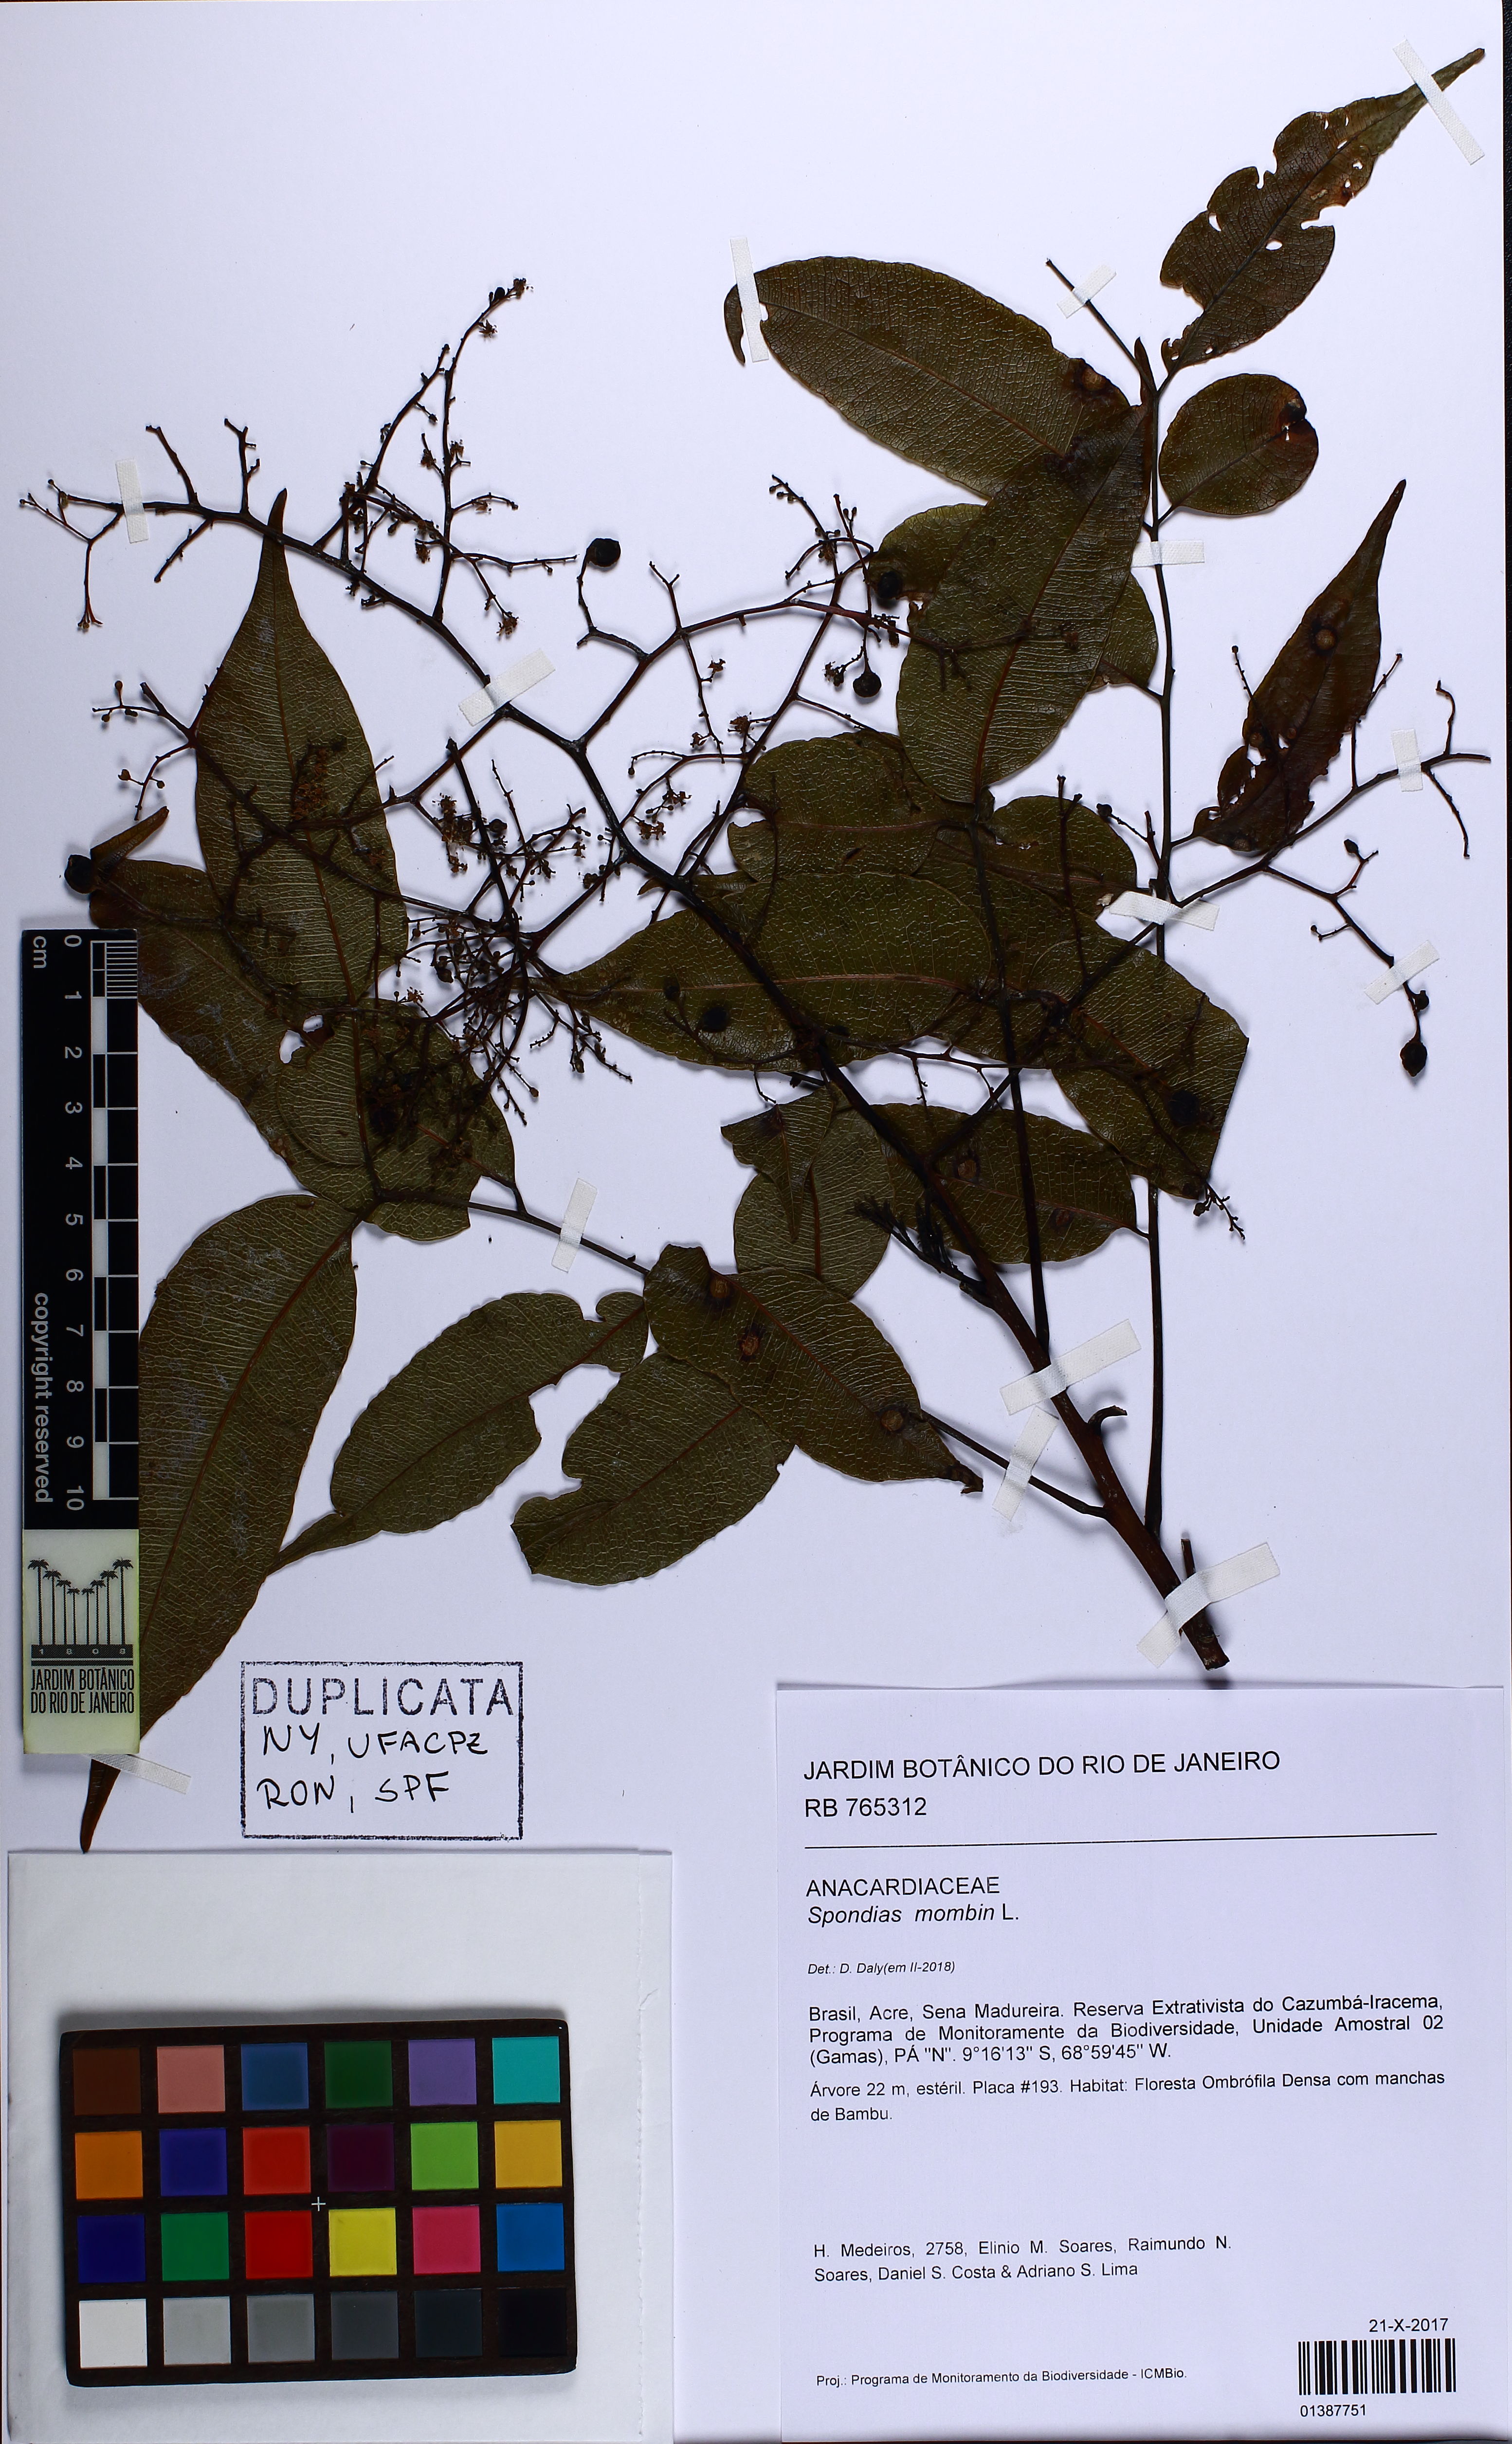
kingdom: Plantae
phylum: Tracheophyta
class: Magnoliopsida
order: Sapindales
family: Anacardiaceae
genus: Spondias
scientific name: Spondias mombin
